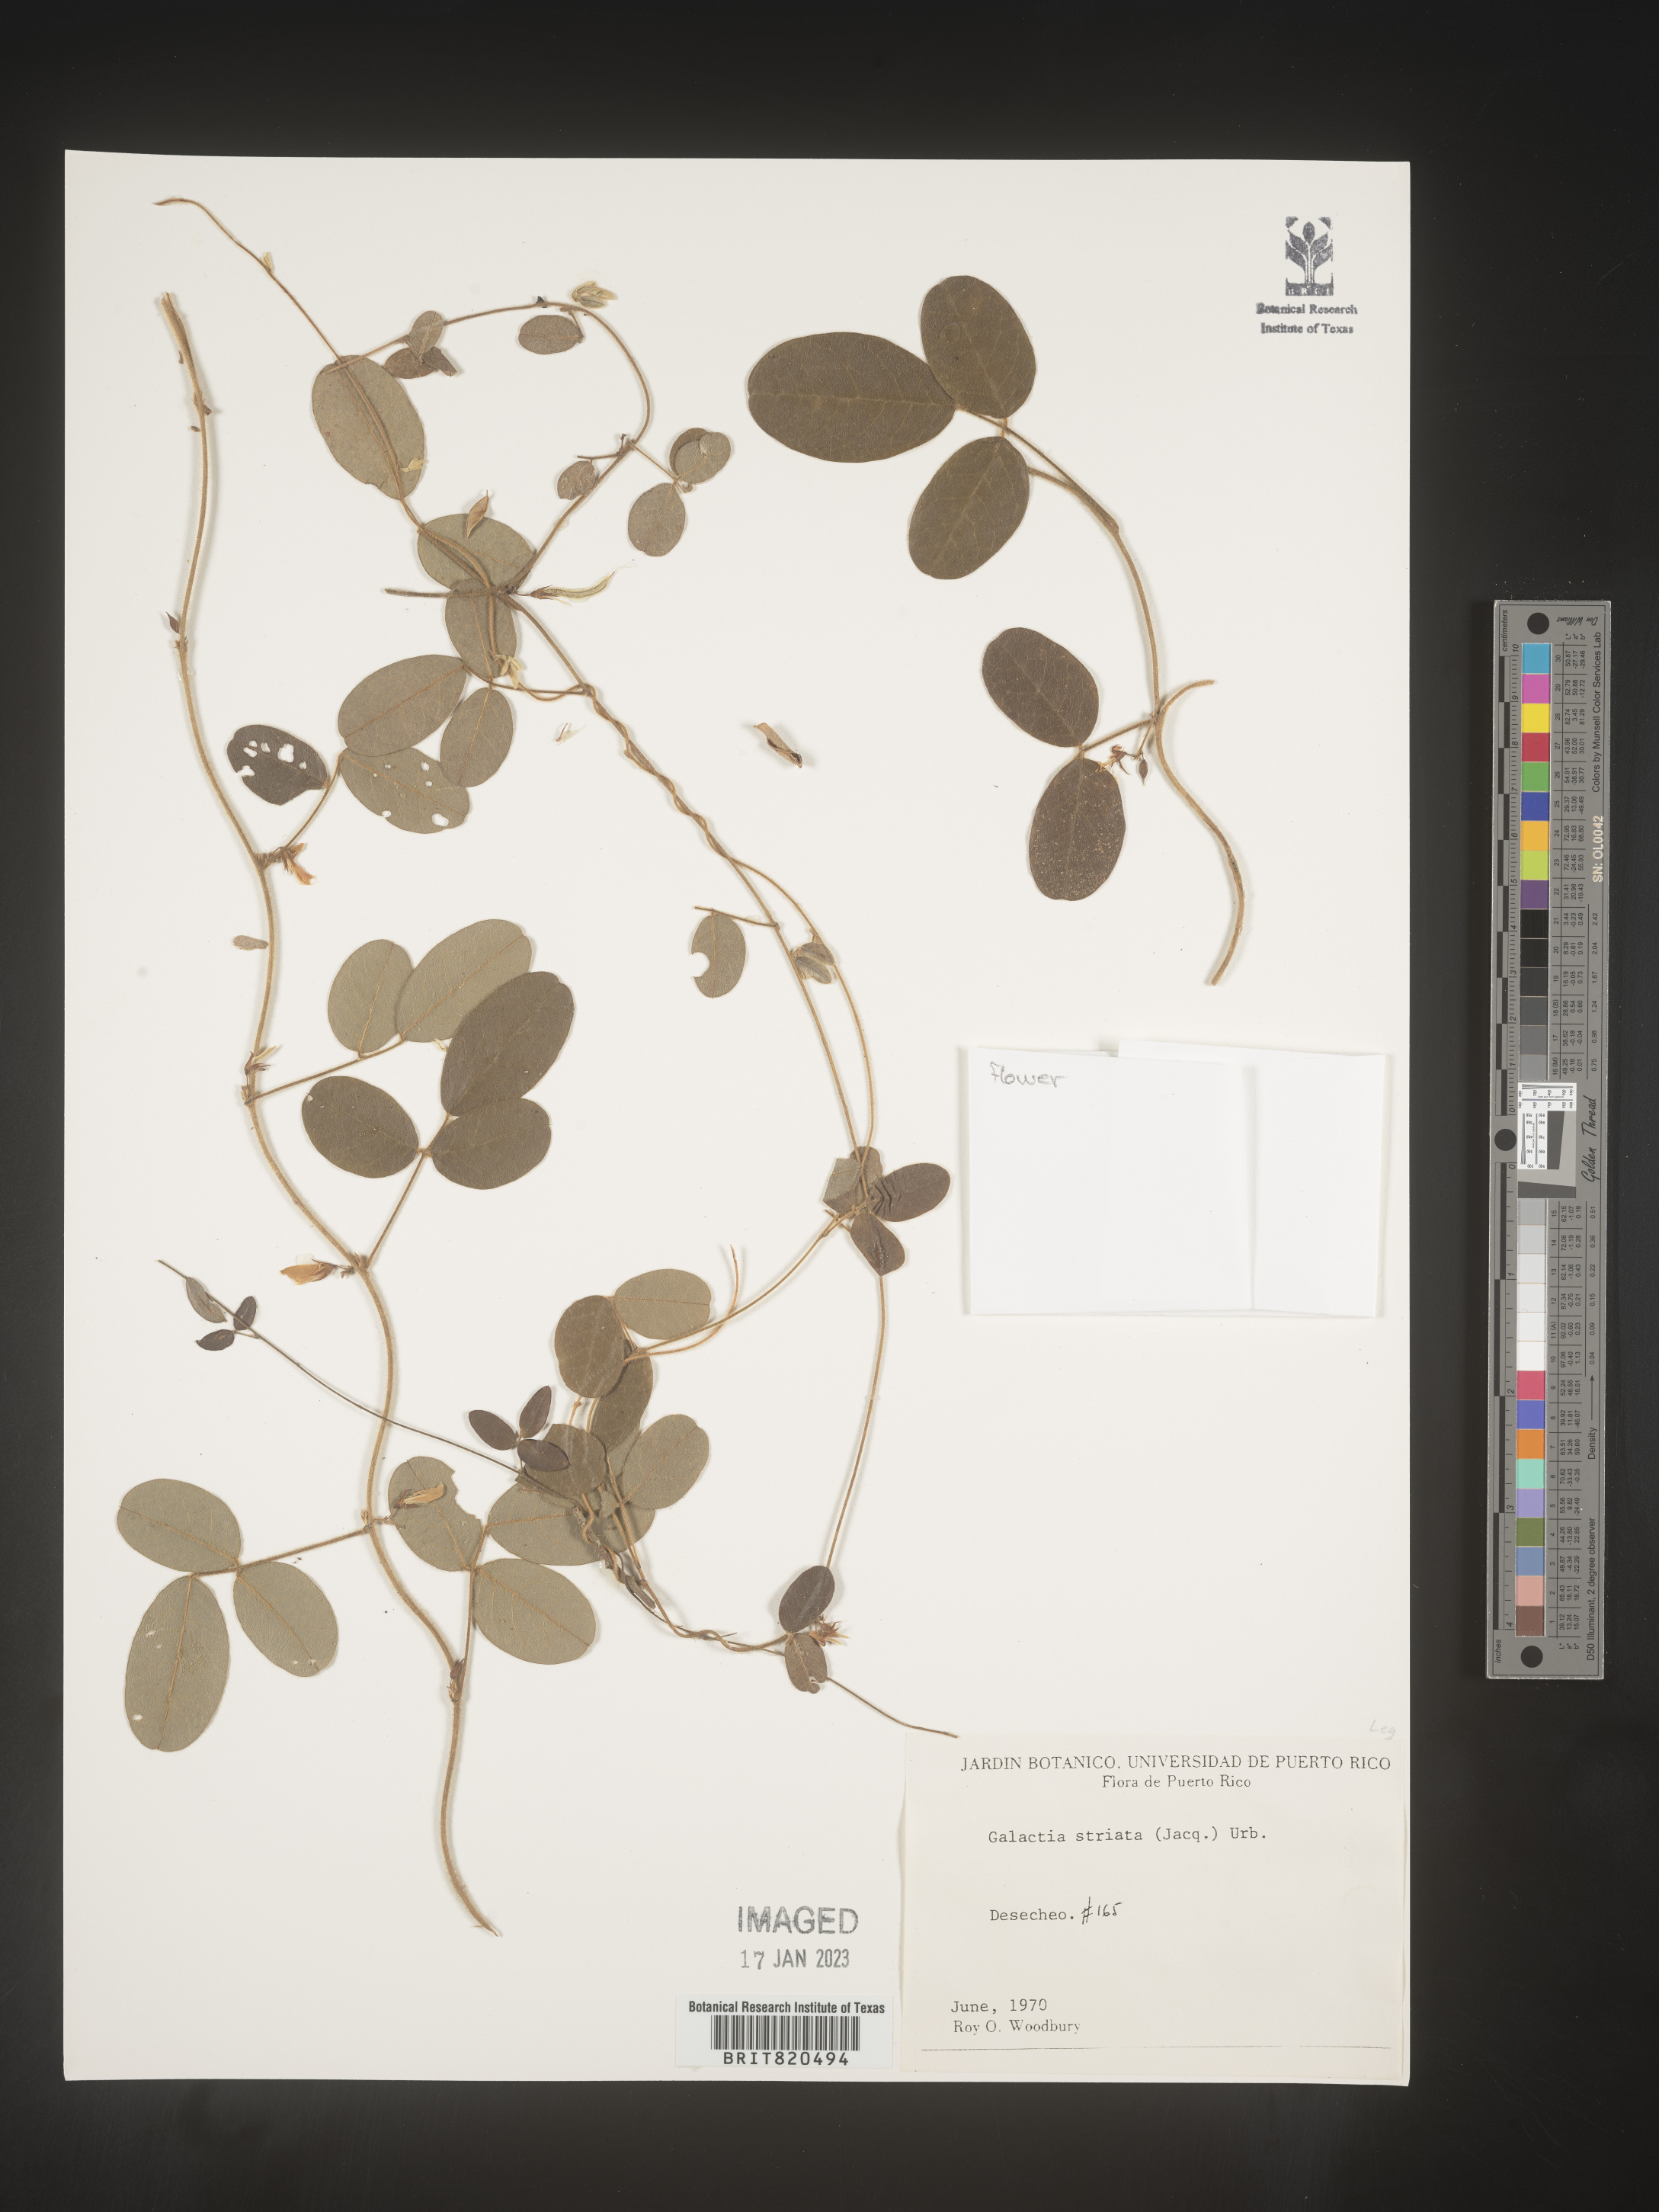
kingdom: Plantae
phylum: Tracheophyta
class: Magnoliopsida
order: Fabales
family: Fabaceae
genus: Galactia
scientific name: Galactia
